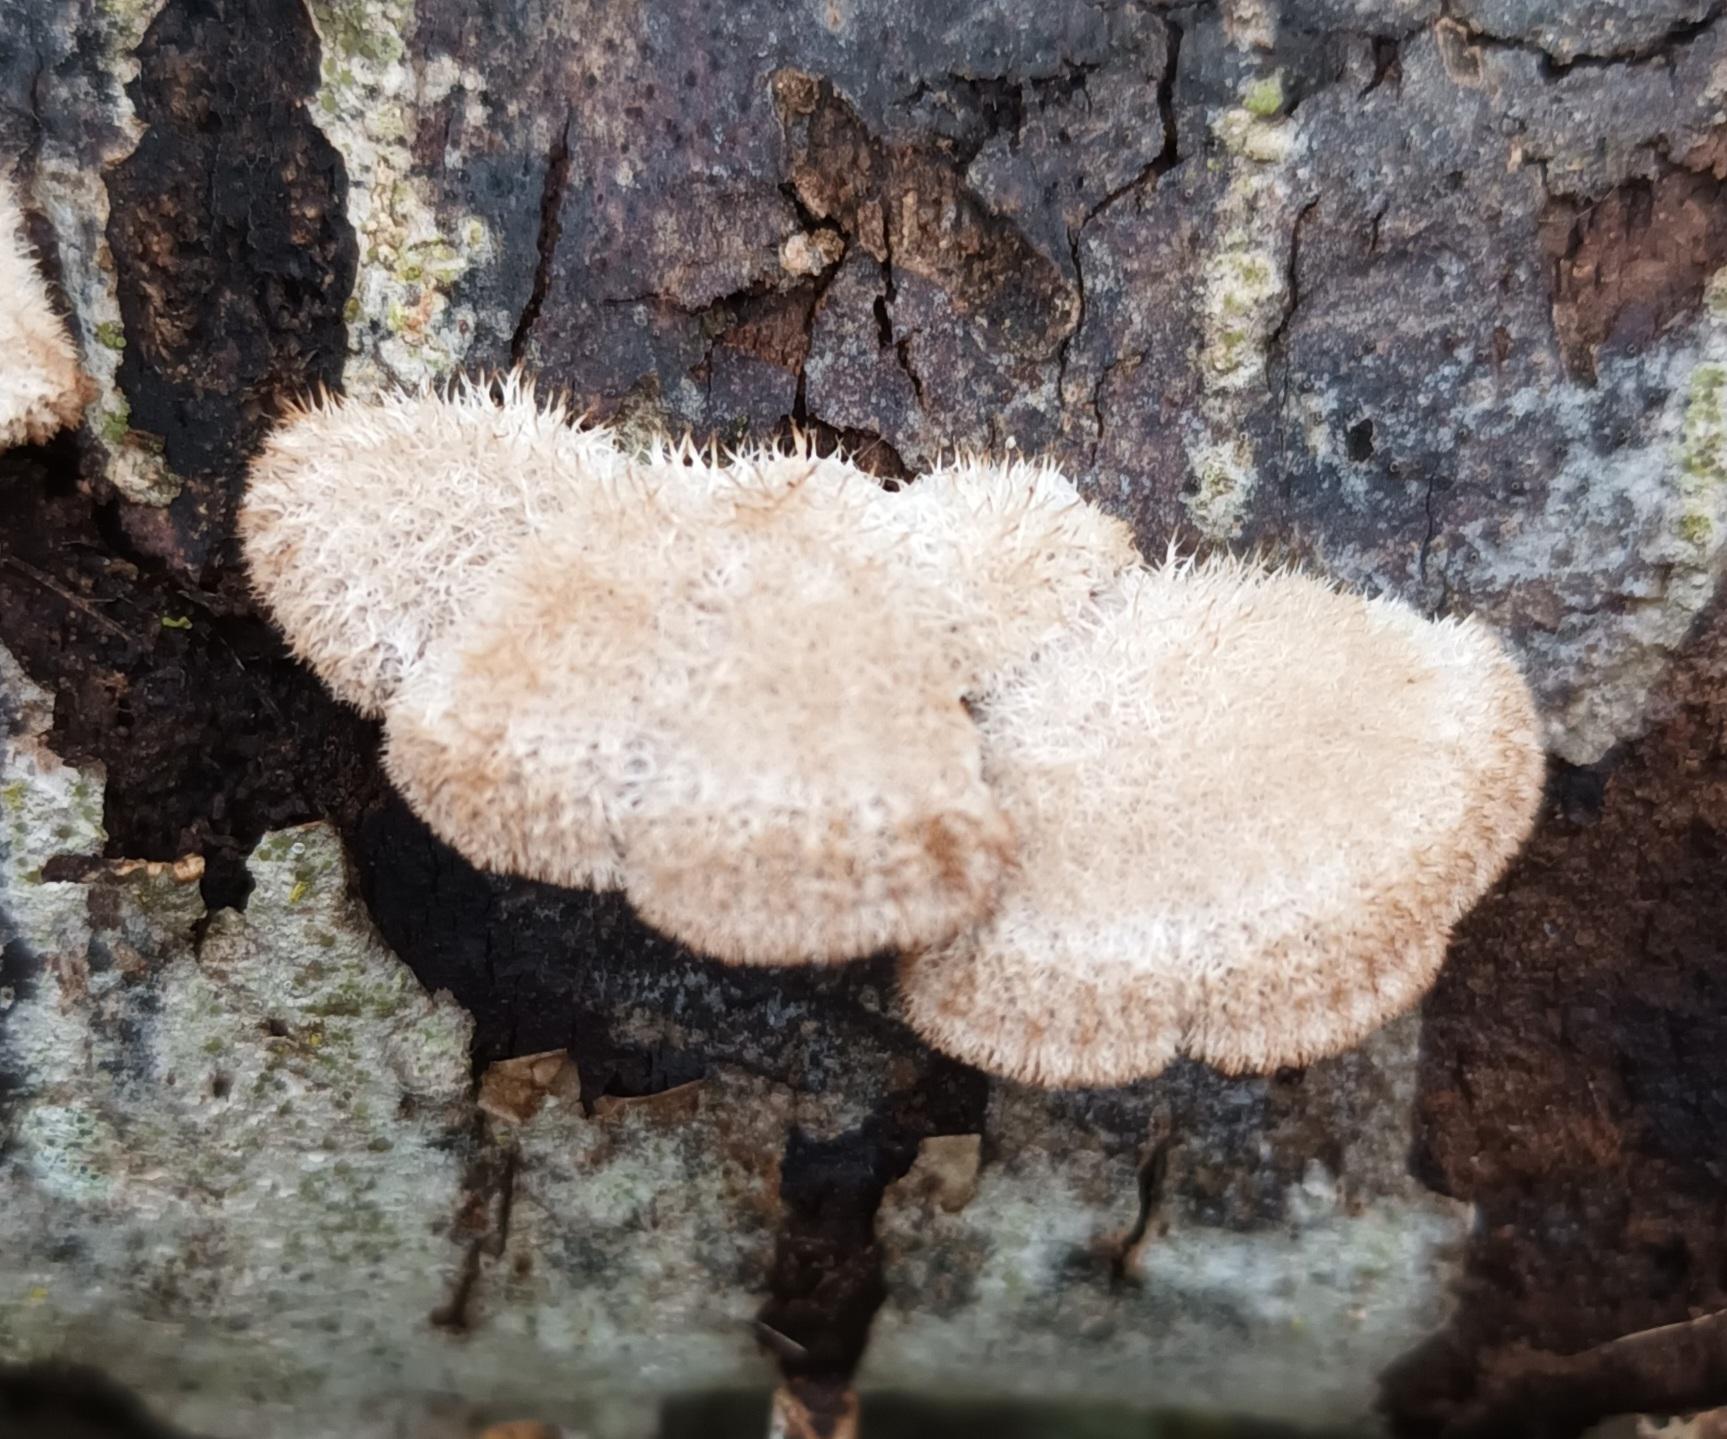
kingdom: Fungi
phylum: Basidiomycota
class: Agaricomycetes
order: Agaricales
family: Schizophyllaceae
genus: Schizophyllum
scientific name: Schizophyllum commune
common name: Kløvblad
